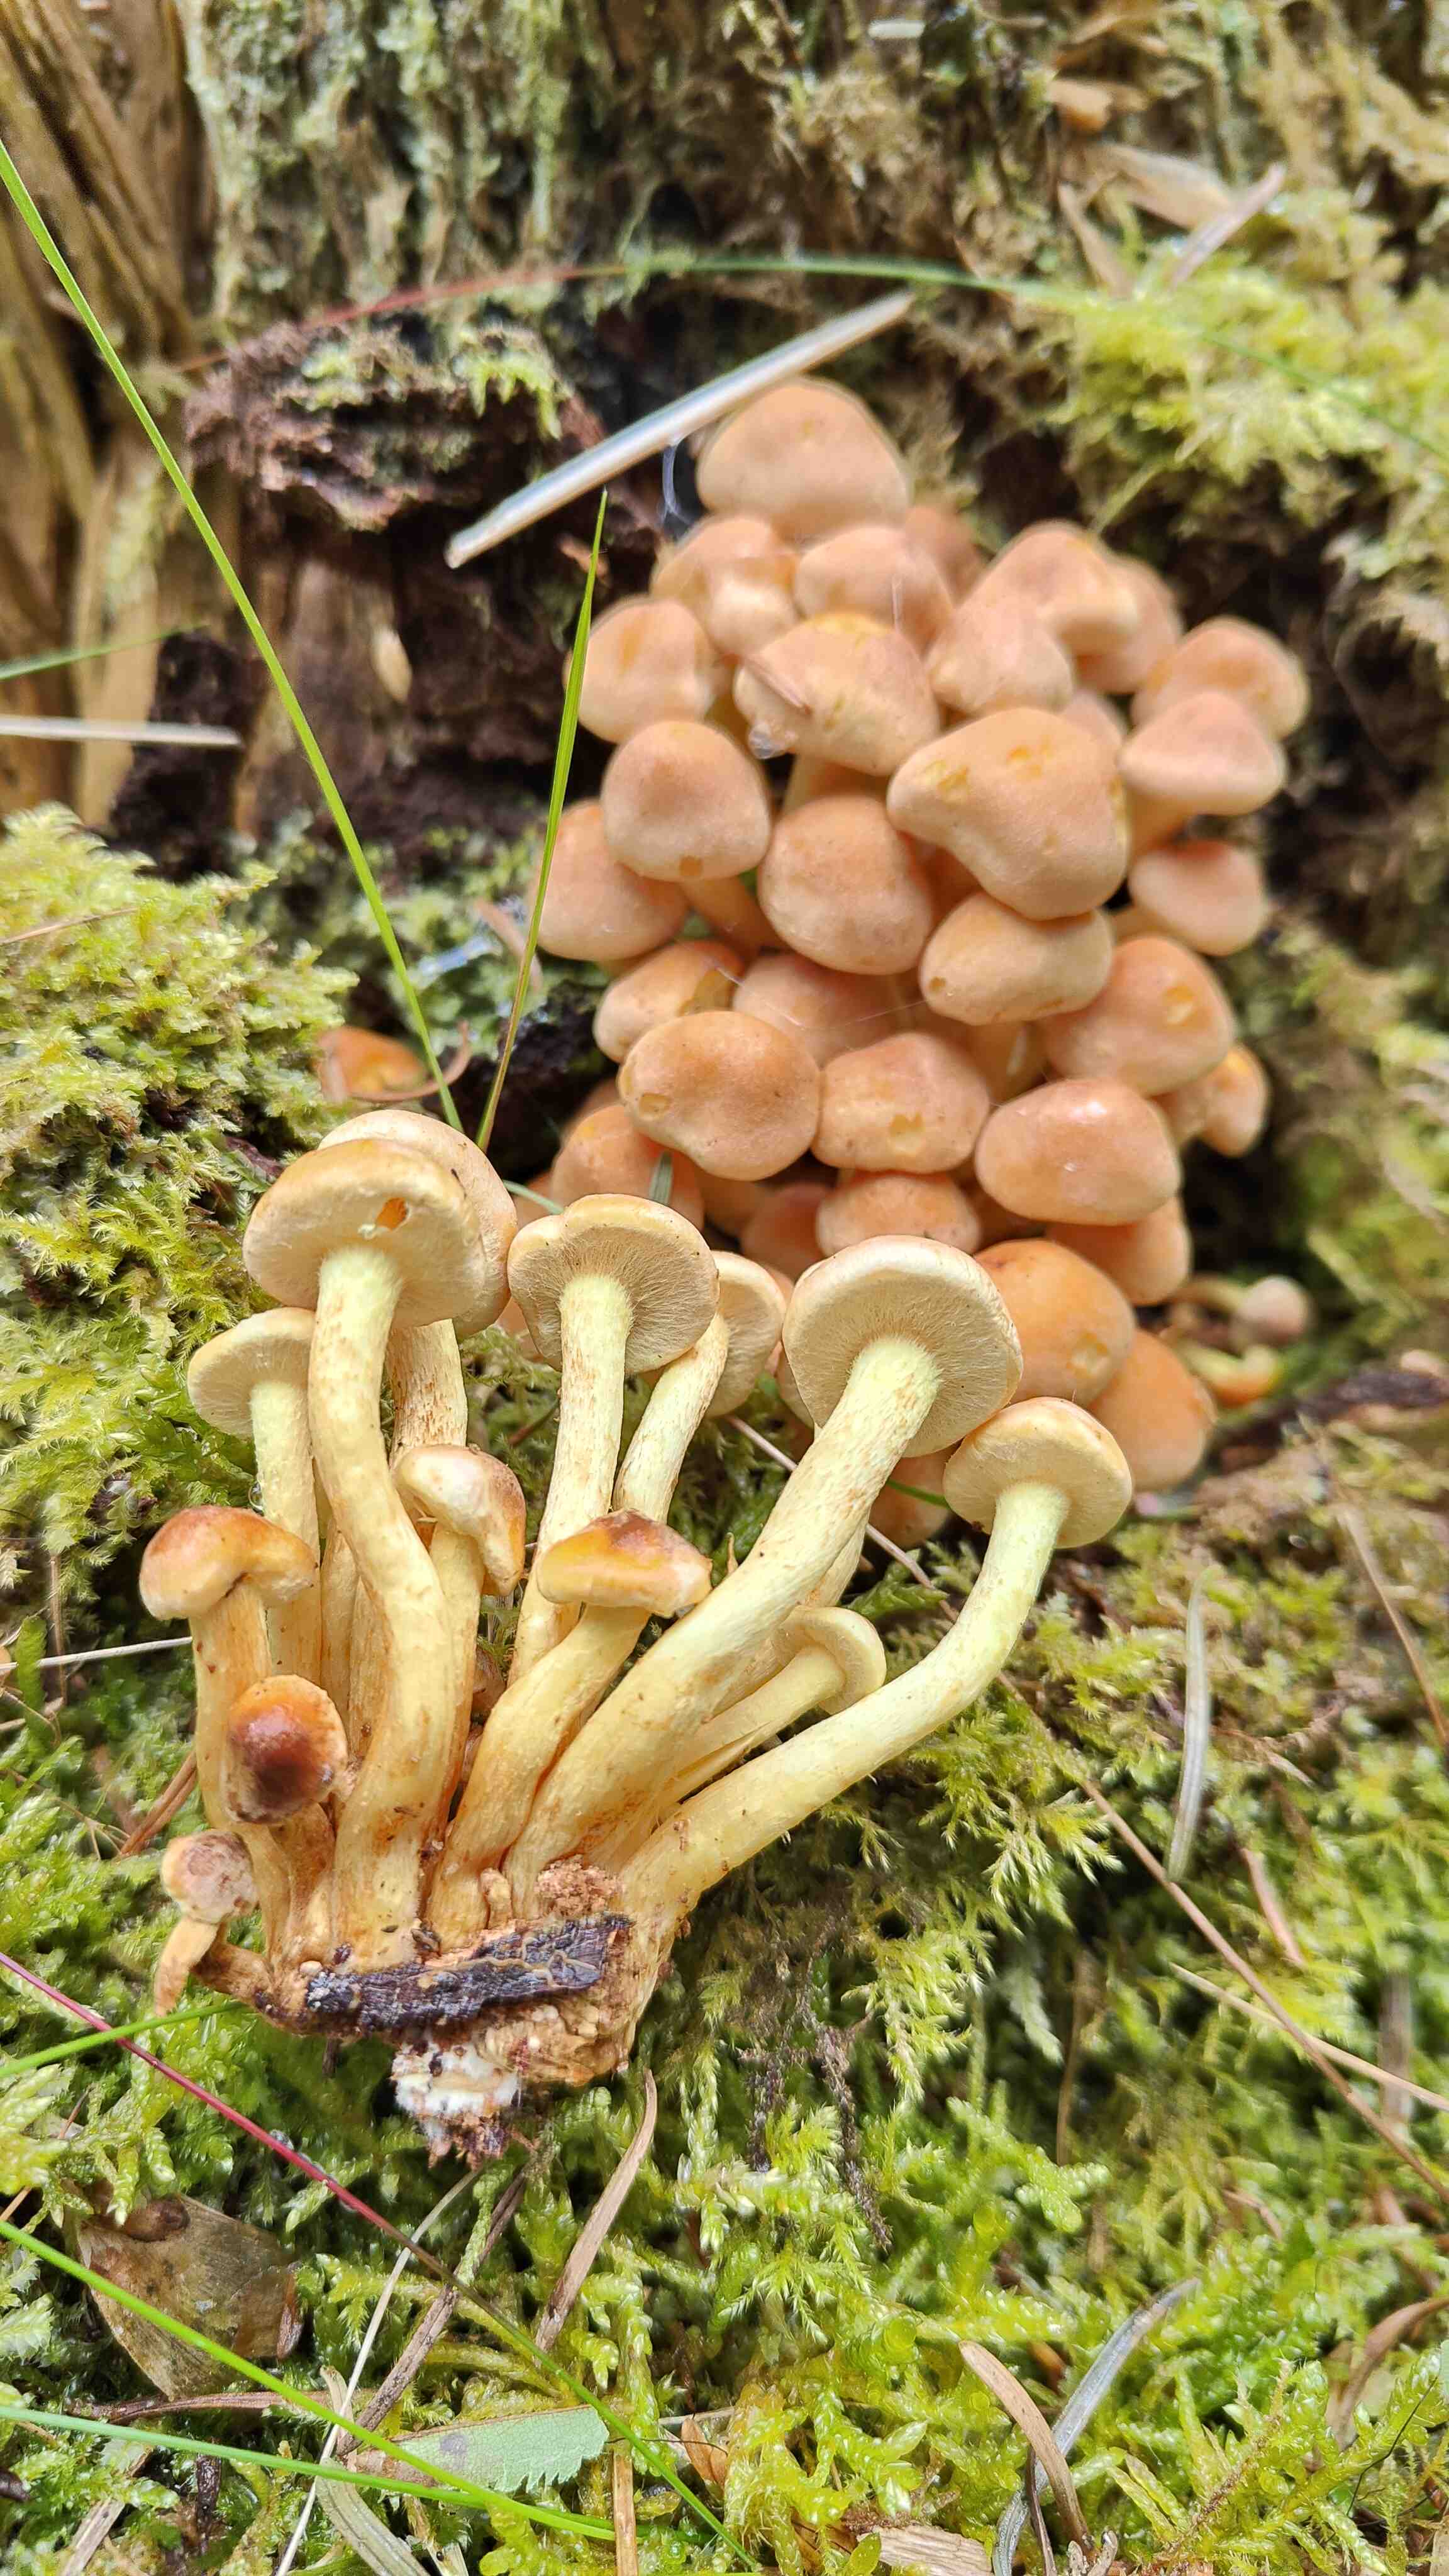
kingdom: Fungi
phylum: Basidiomycota
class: Agaricomycetes
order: Agaricales
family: Strophariaceae
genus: Hypholoma
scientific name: Hypholoma fasciculare
